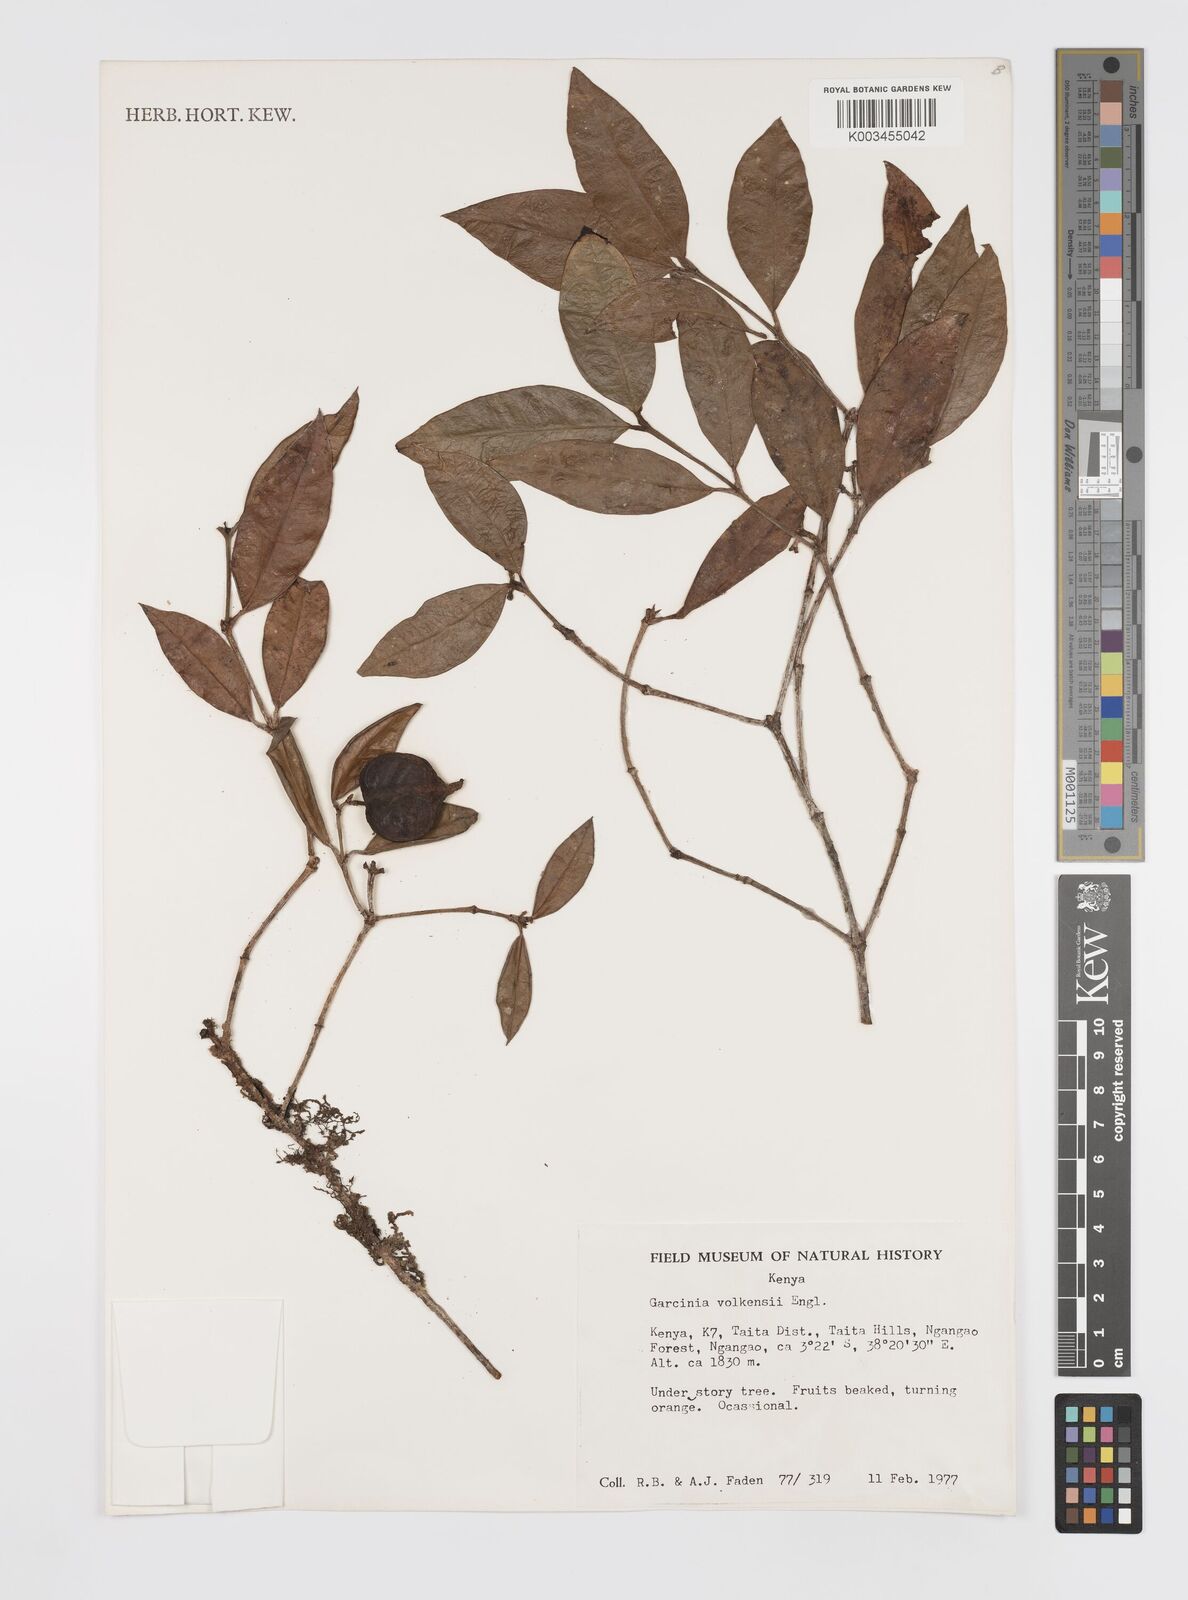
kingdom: Plantae
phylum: Tracheophyta
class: Magnoliopsida
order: Malpighiales
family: Clusiaceae
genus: Garcinia
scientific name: Garcinia volkensii
